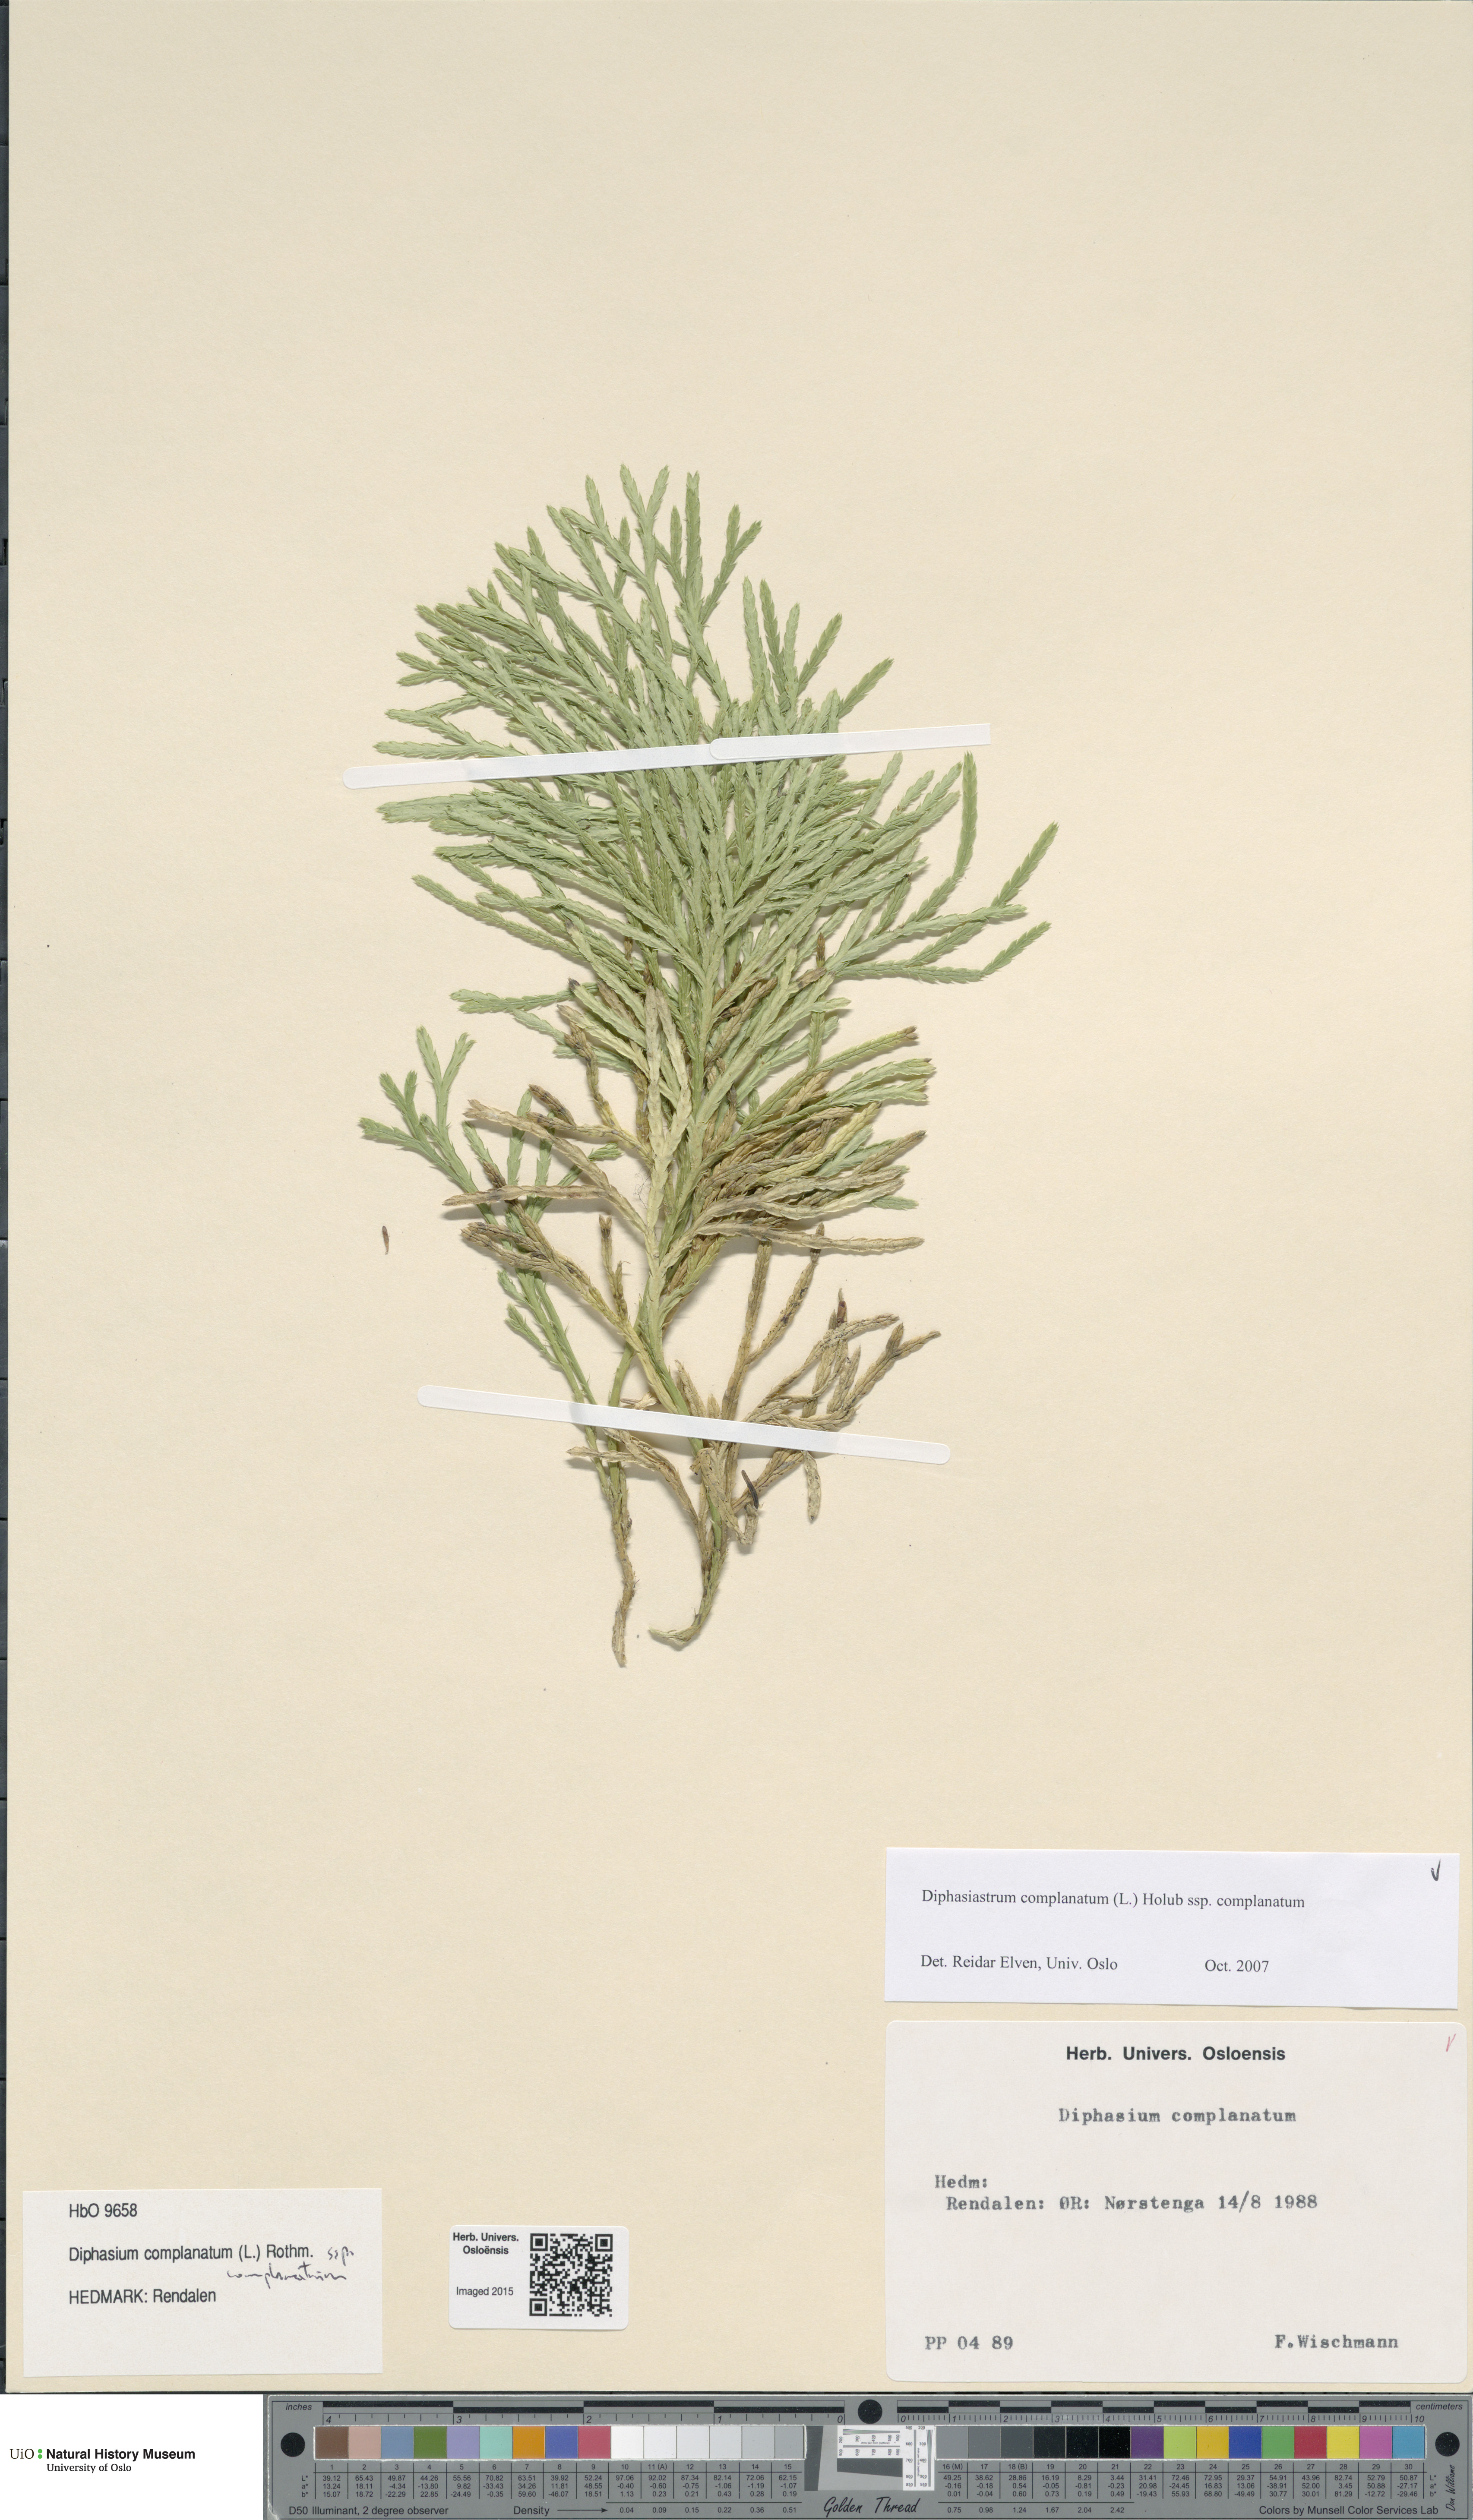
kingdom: Plantae
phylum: Tracheophyta
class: Lycopodiopsida
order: Lycopodiales
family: Lycopodiaceae
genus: Diphasiastrum
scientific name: Diphasiastrum complanatum
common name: Northern running-pine
